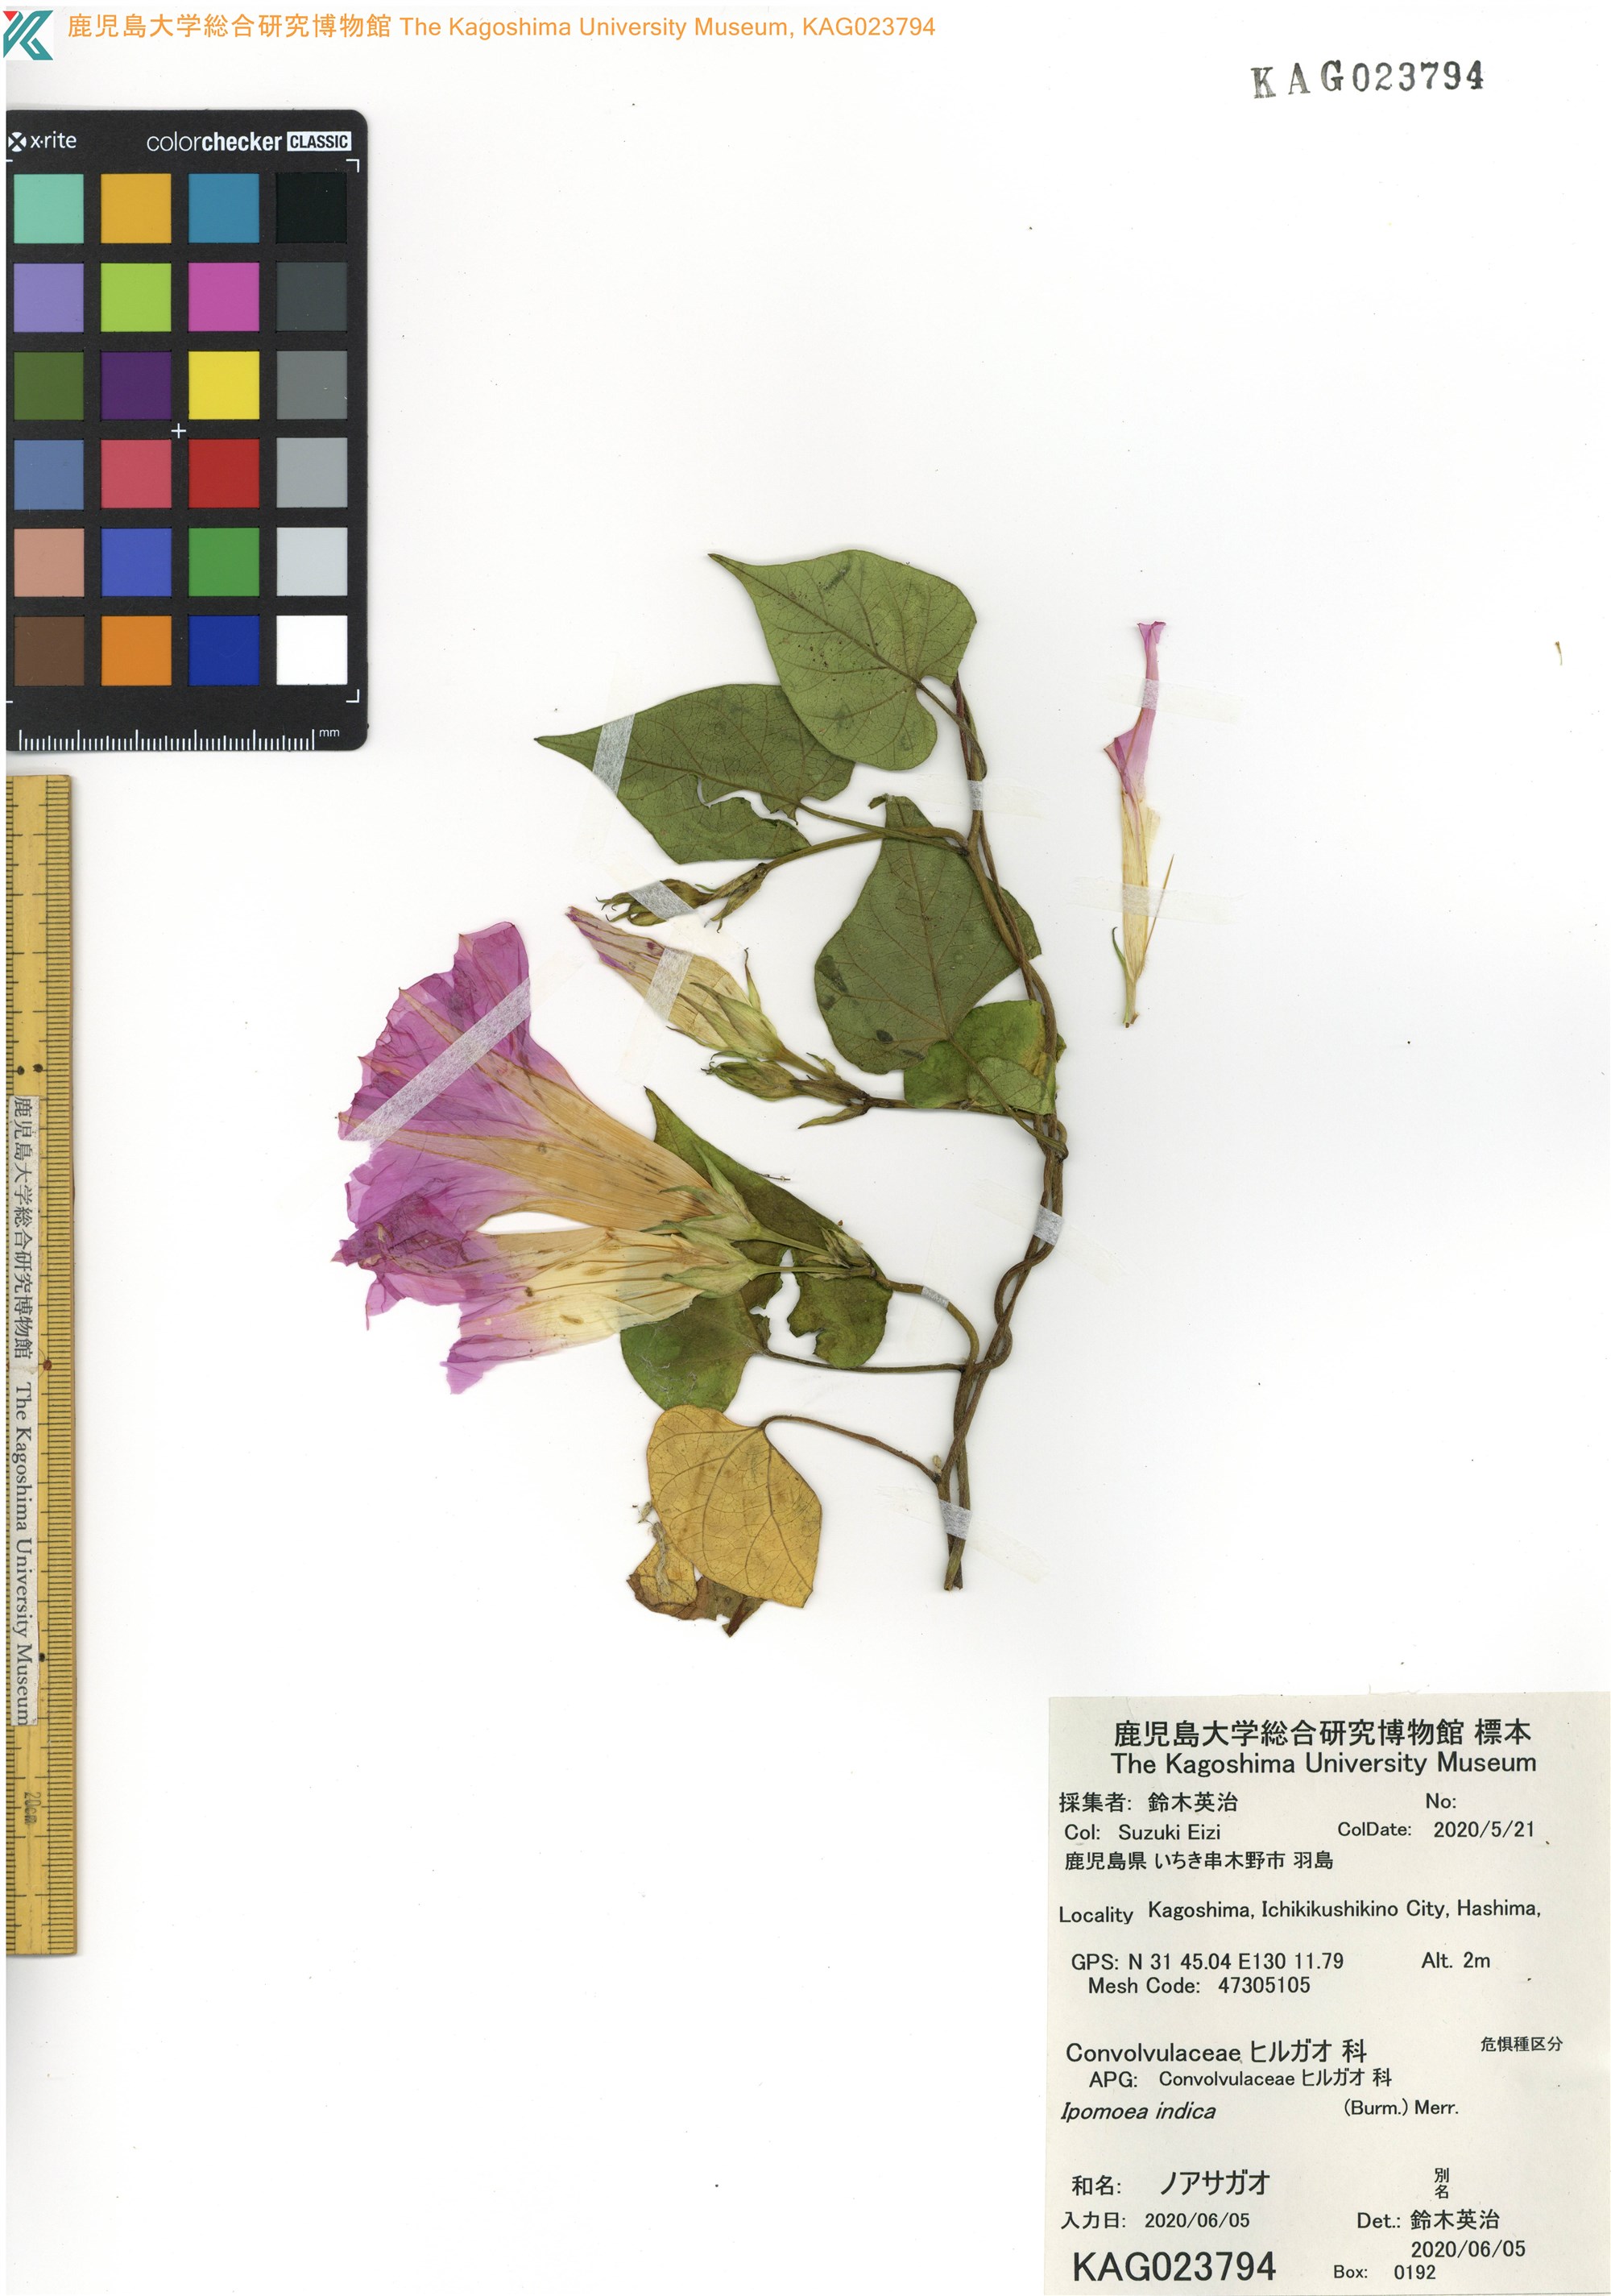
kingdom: Plantae
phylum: Tracheophyta
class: Magnoliopsida
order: Solanales
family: Convolvulaceae
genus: Ipomoea
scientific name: Ipomoea indica
